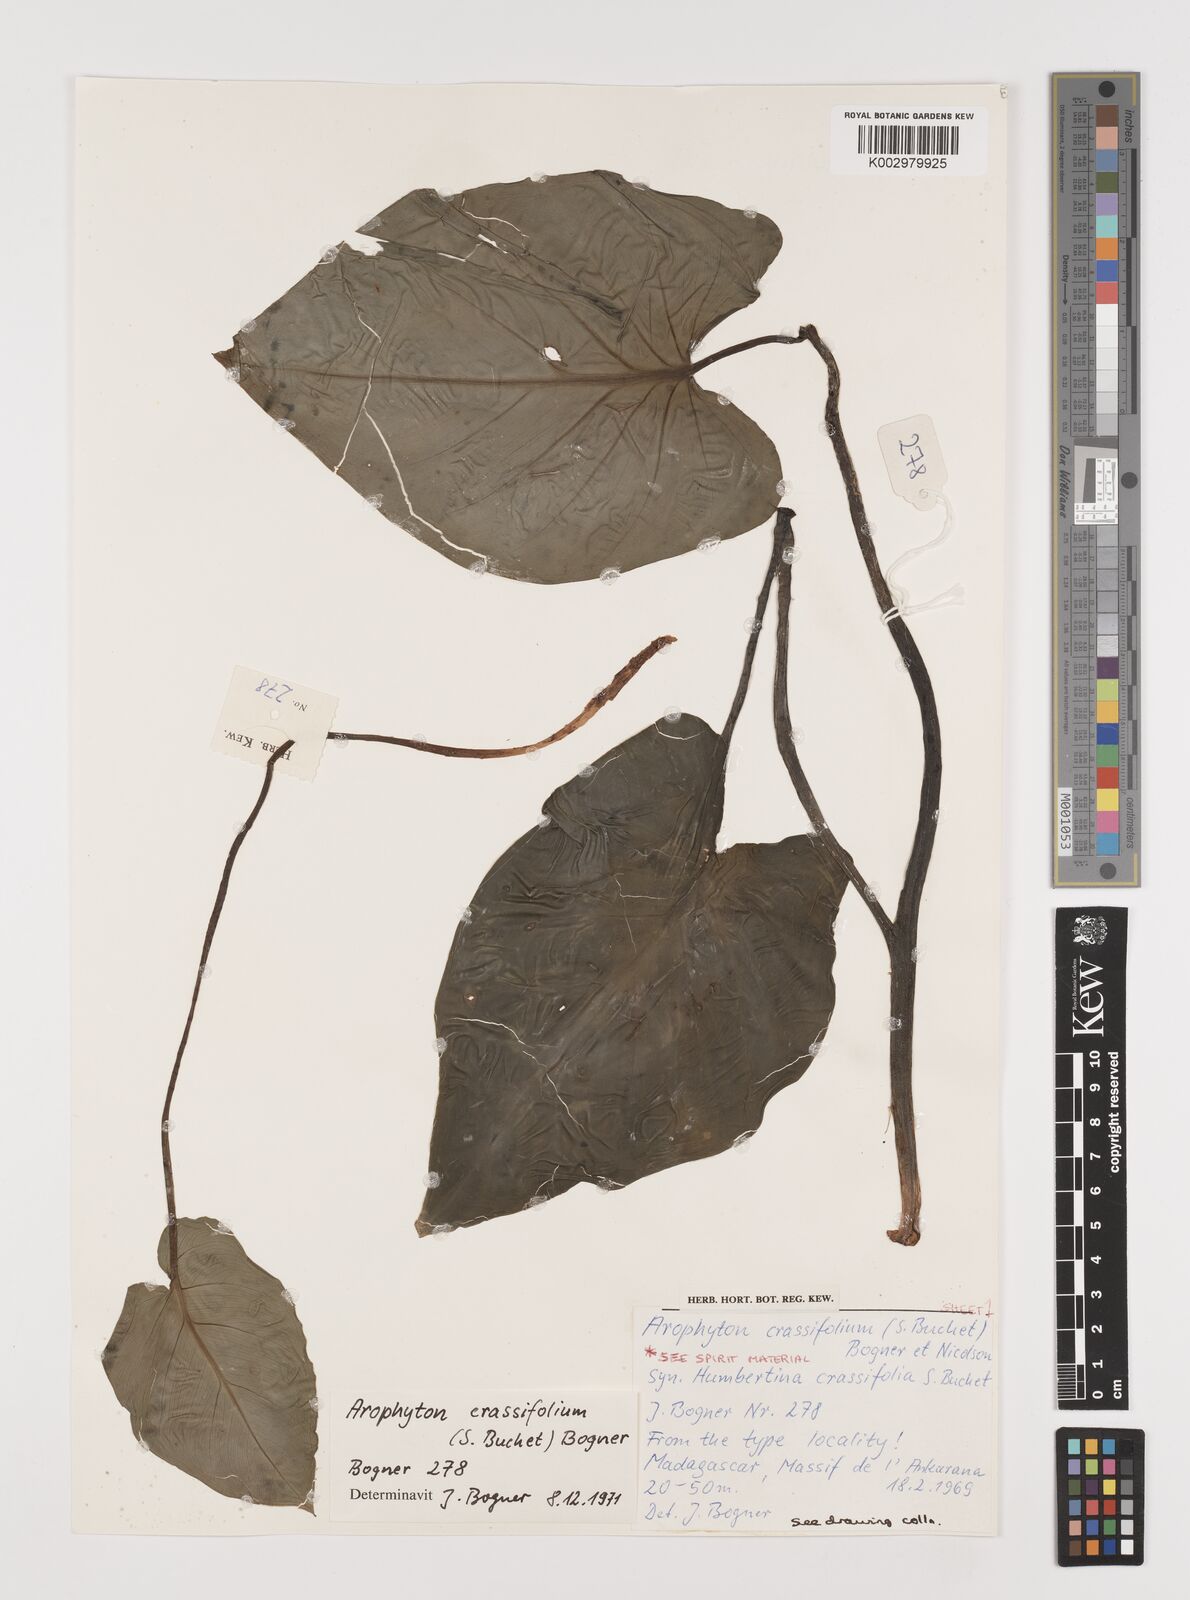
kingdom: Plantae
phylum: Tracheophyta
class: Liliopsida
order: Alismatales
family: Araceae
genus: Arophyton
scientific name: Arophyton crassifolium
